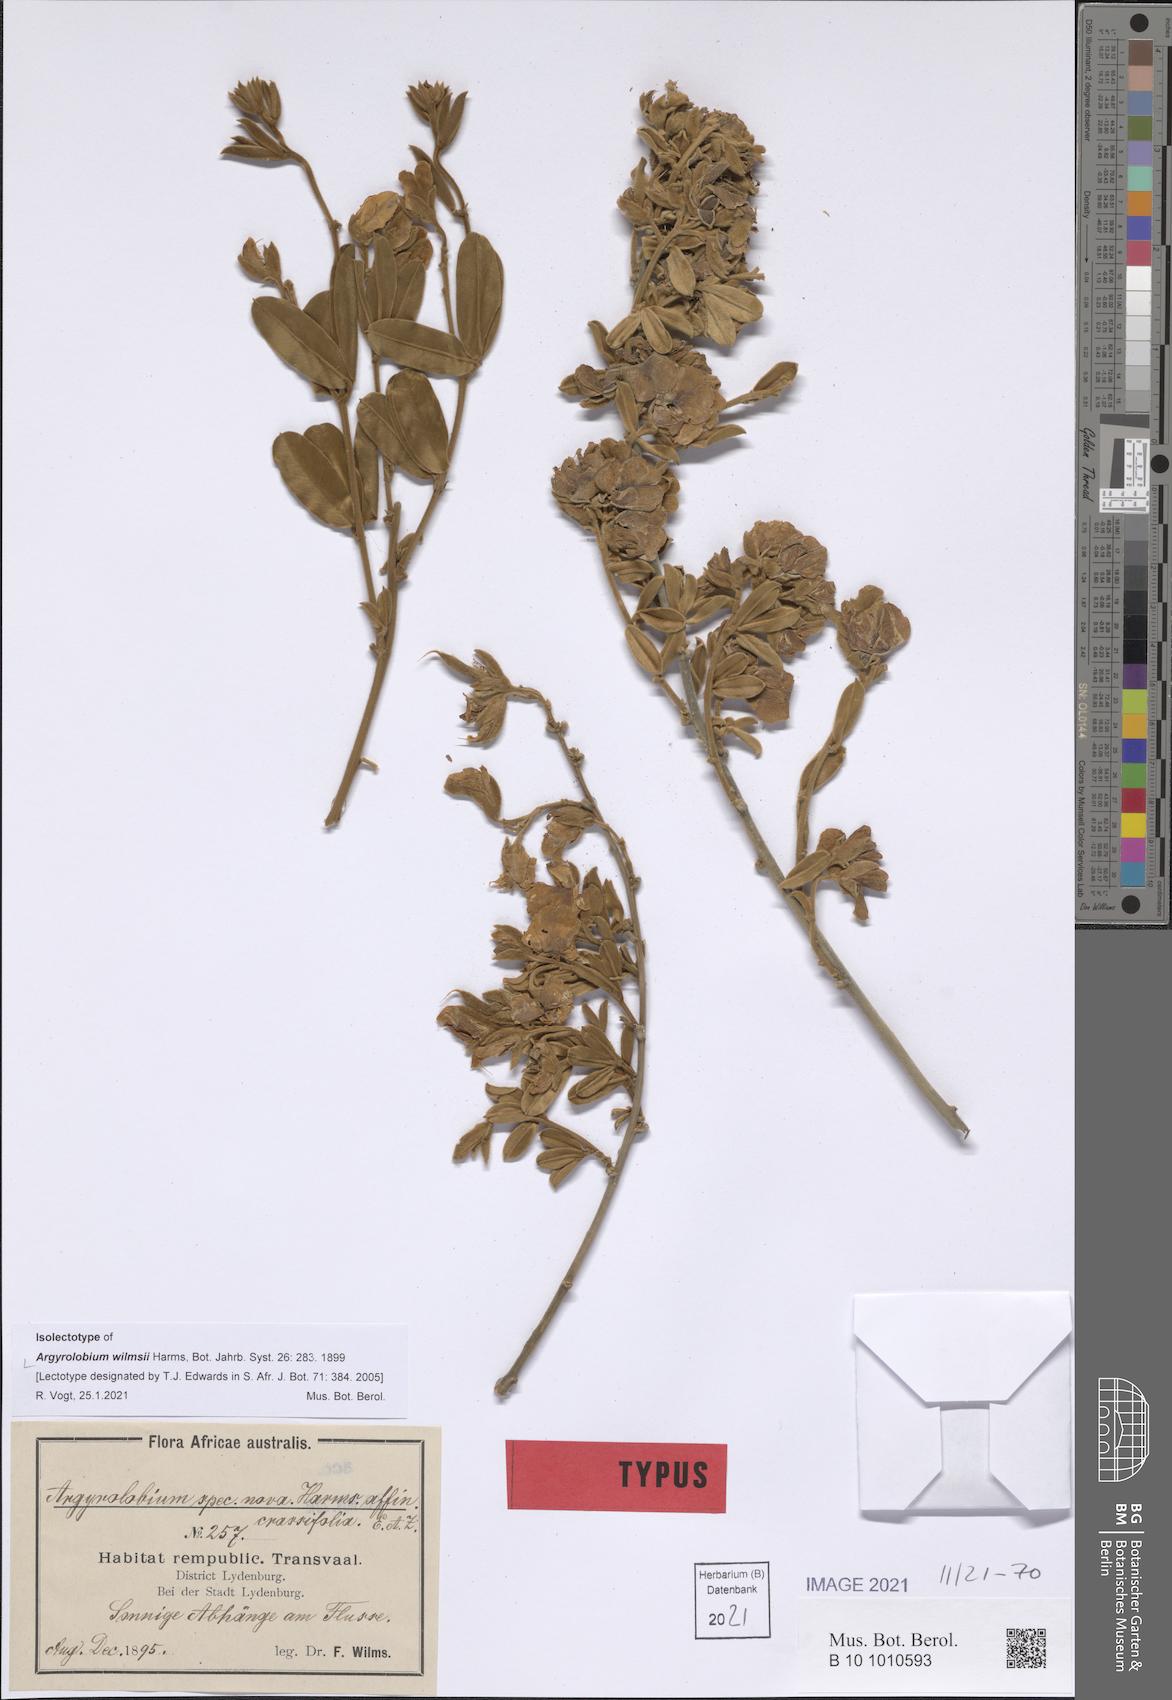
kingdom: Plantae
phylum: Tracheophyta
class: Magnoliopsida
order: Fabales
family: Fabaceae
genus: Argyrolobium
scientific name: Argyrolobium wilmsii
